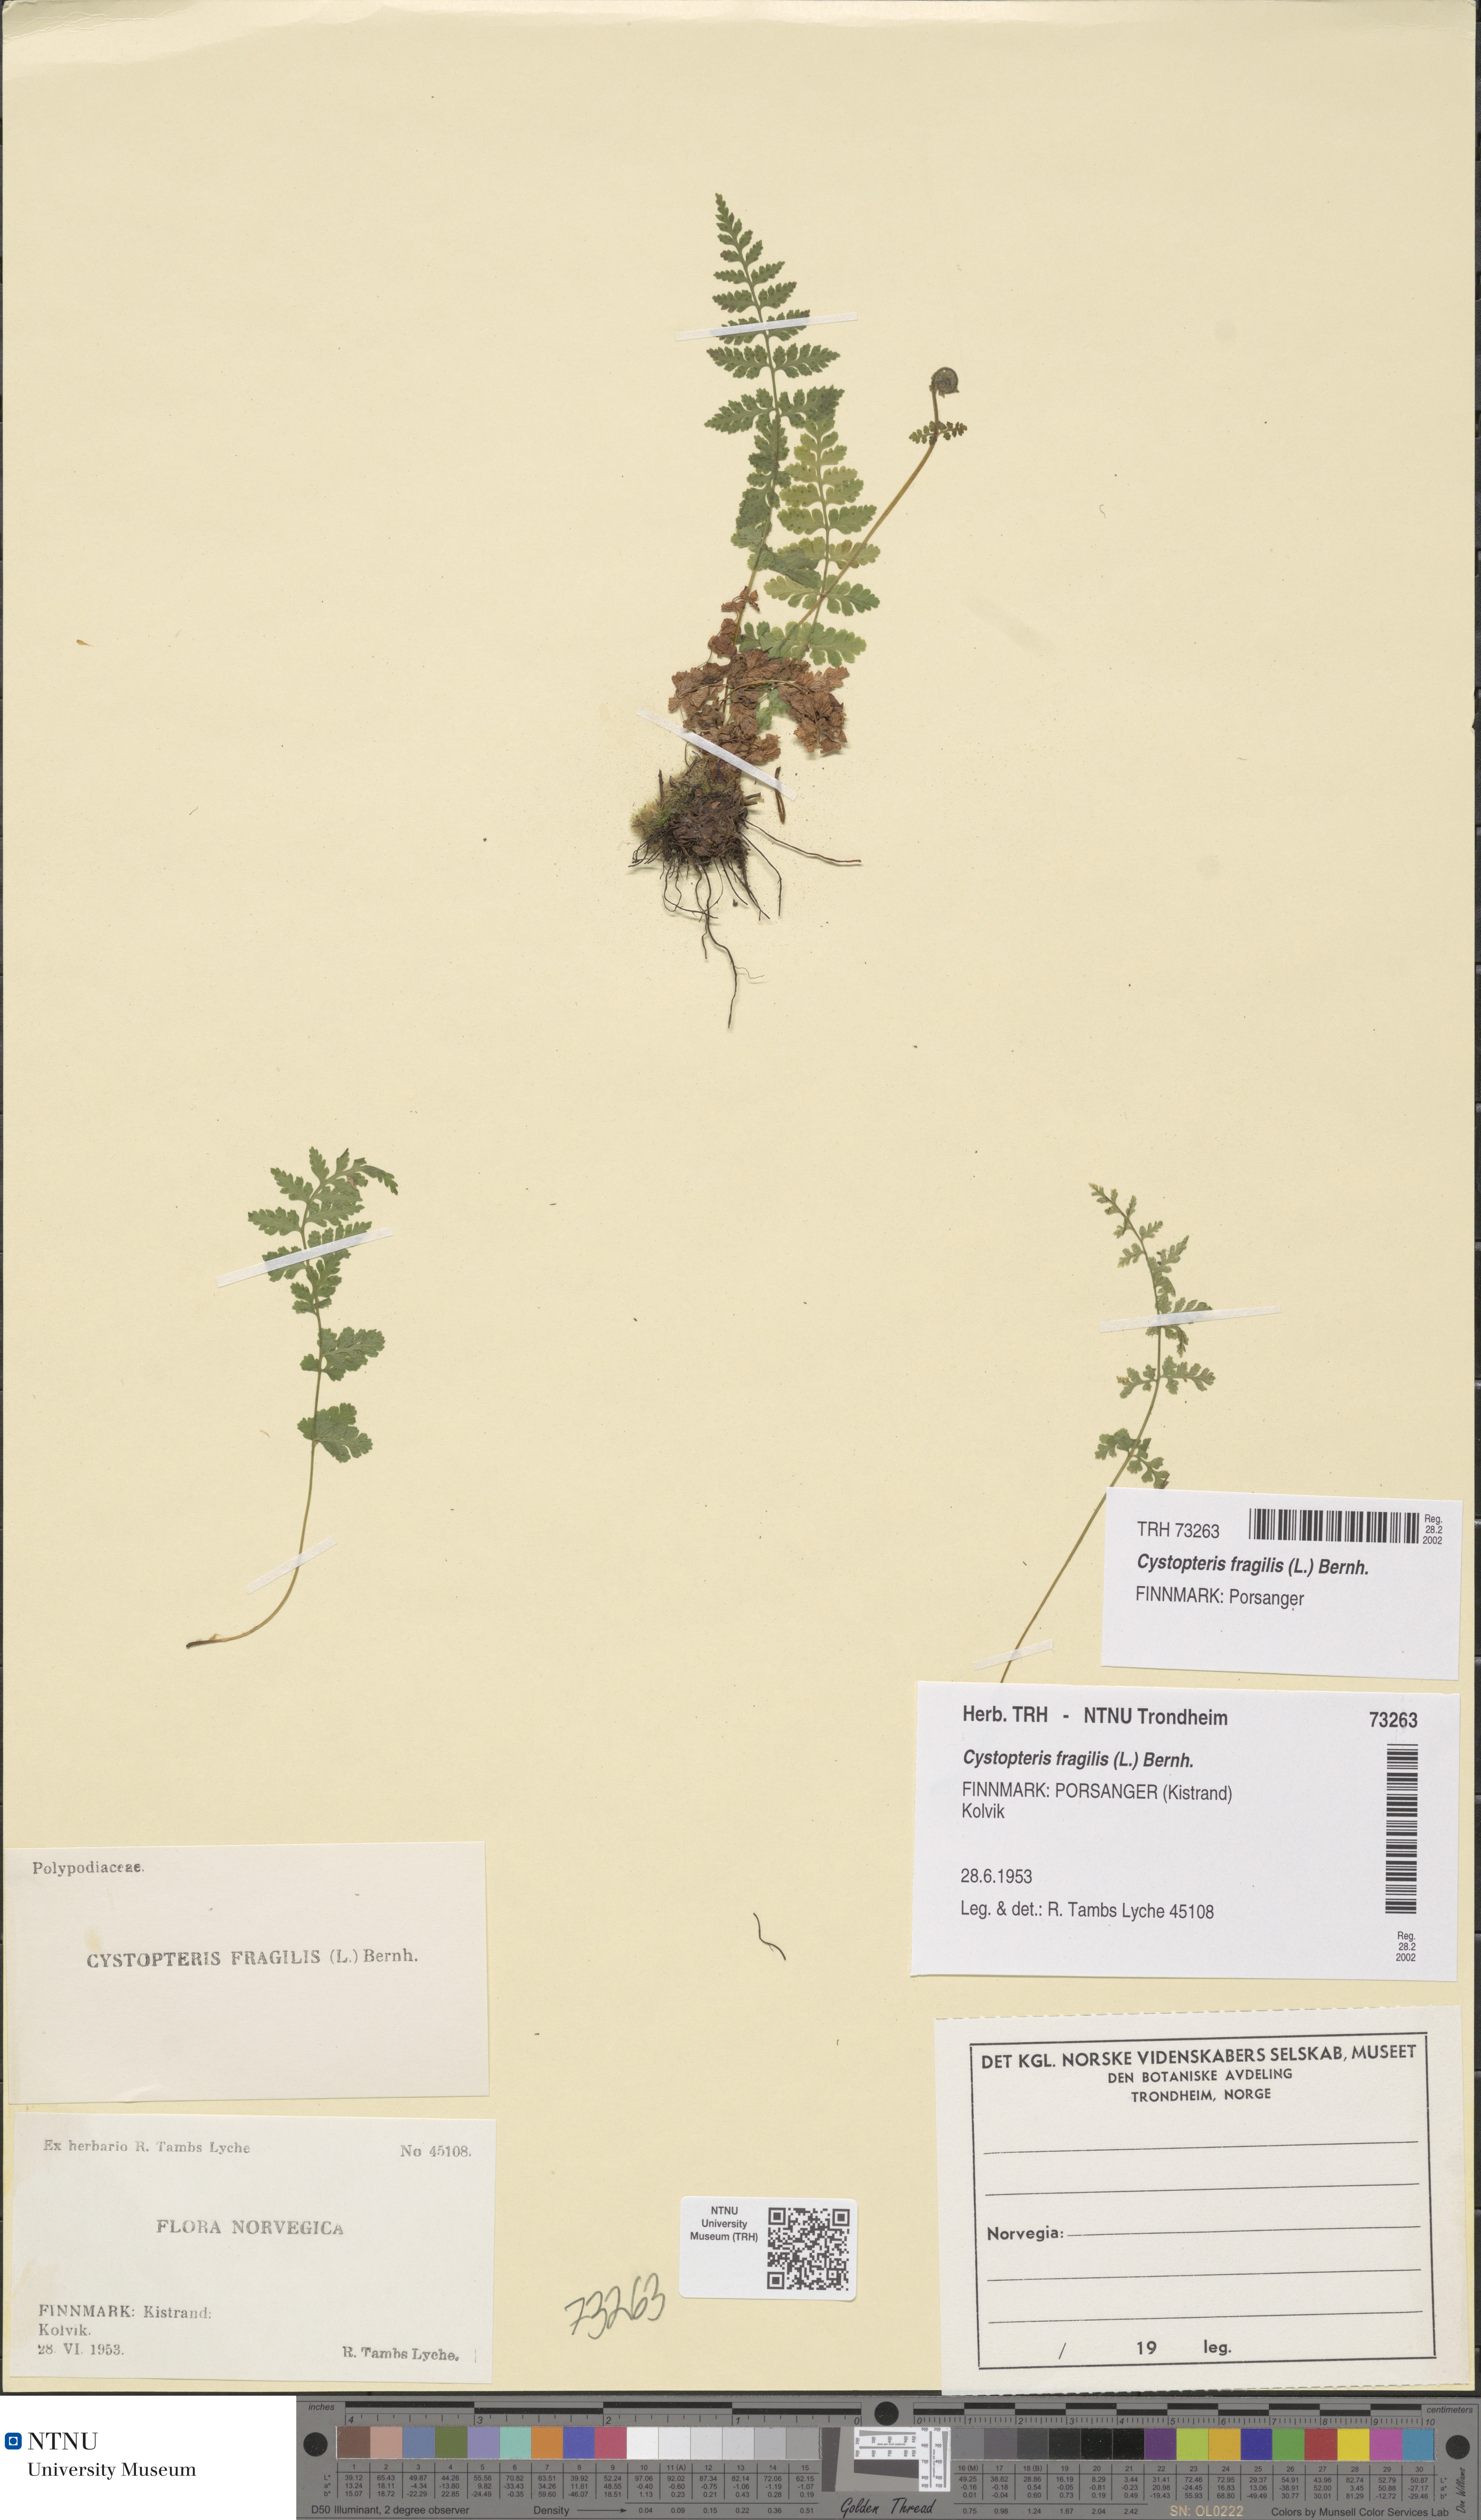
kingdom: Plantae
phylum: Tracheophyta
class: Polypodiopsida
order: Polypodiales
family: Cystopteridaceae
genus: Cystopteris
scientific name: Cystopteris fragilis
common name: Brittle bladder fern
